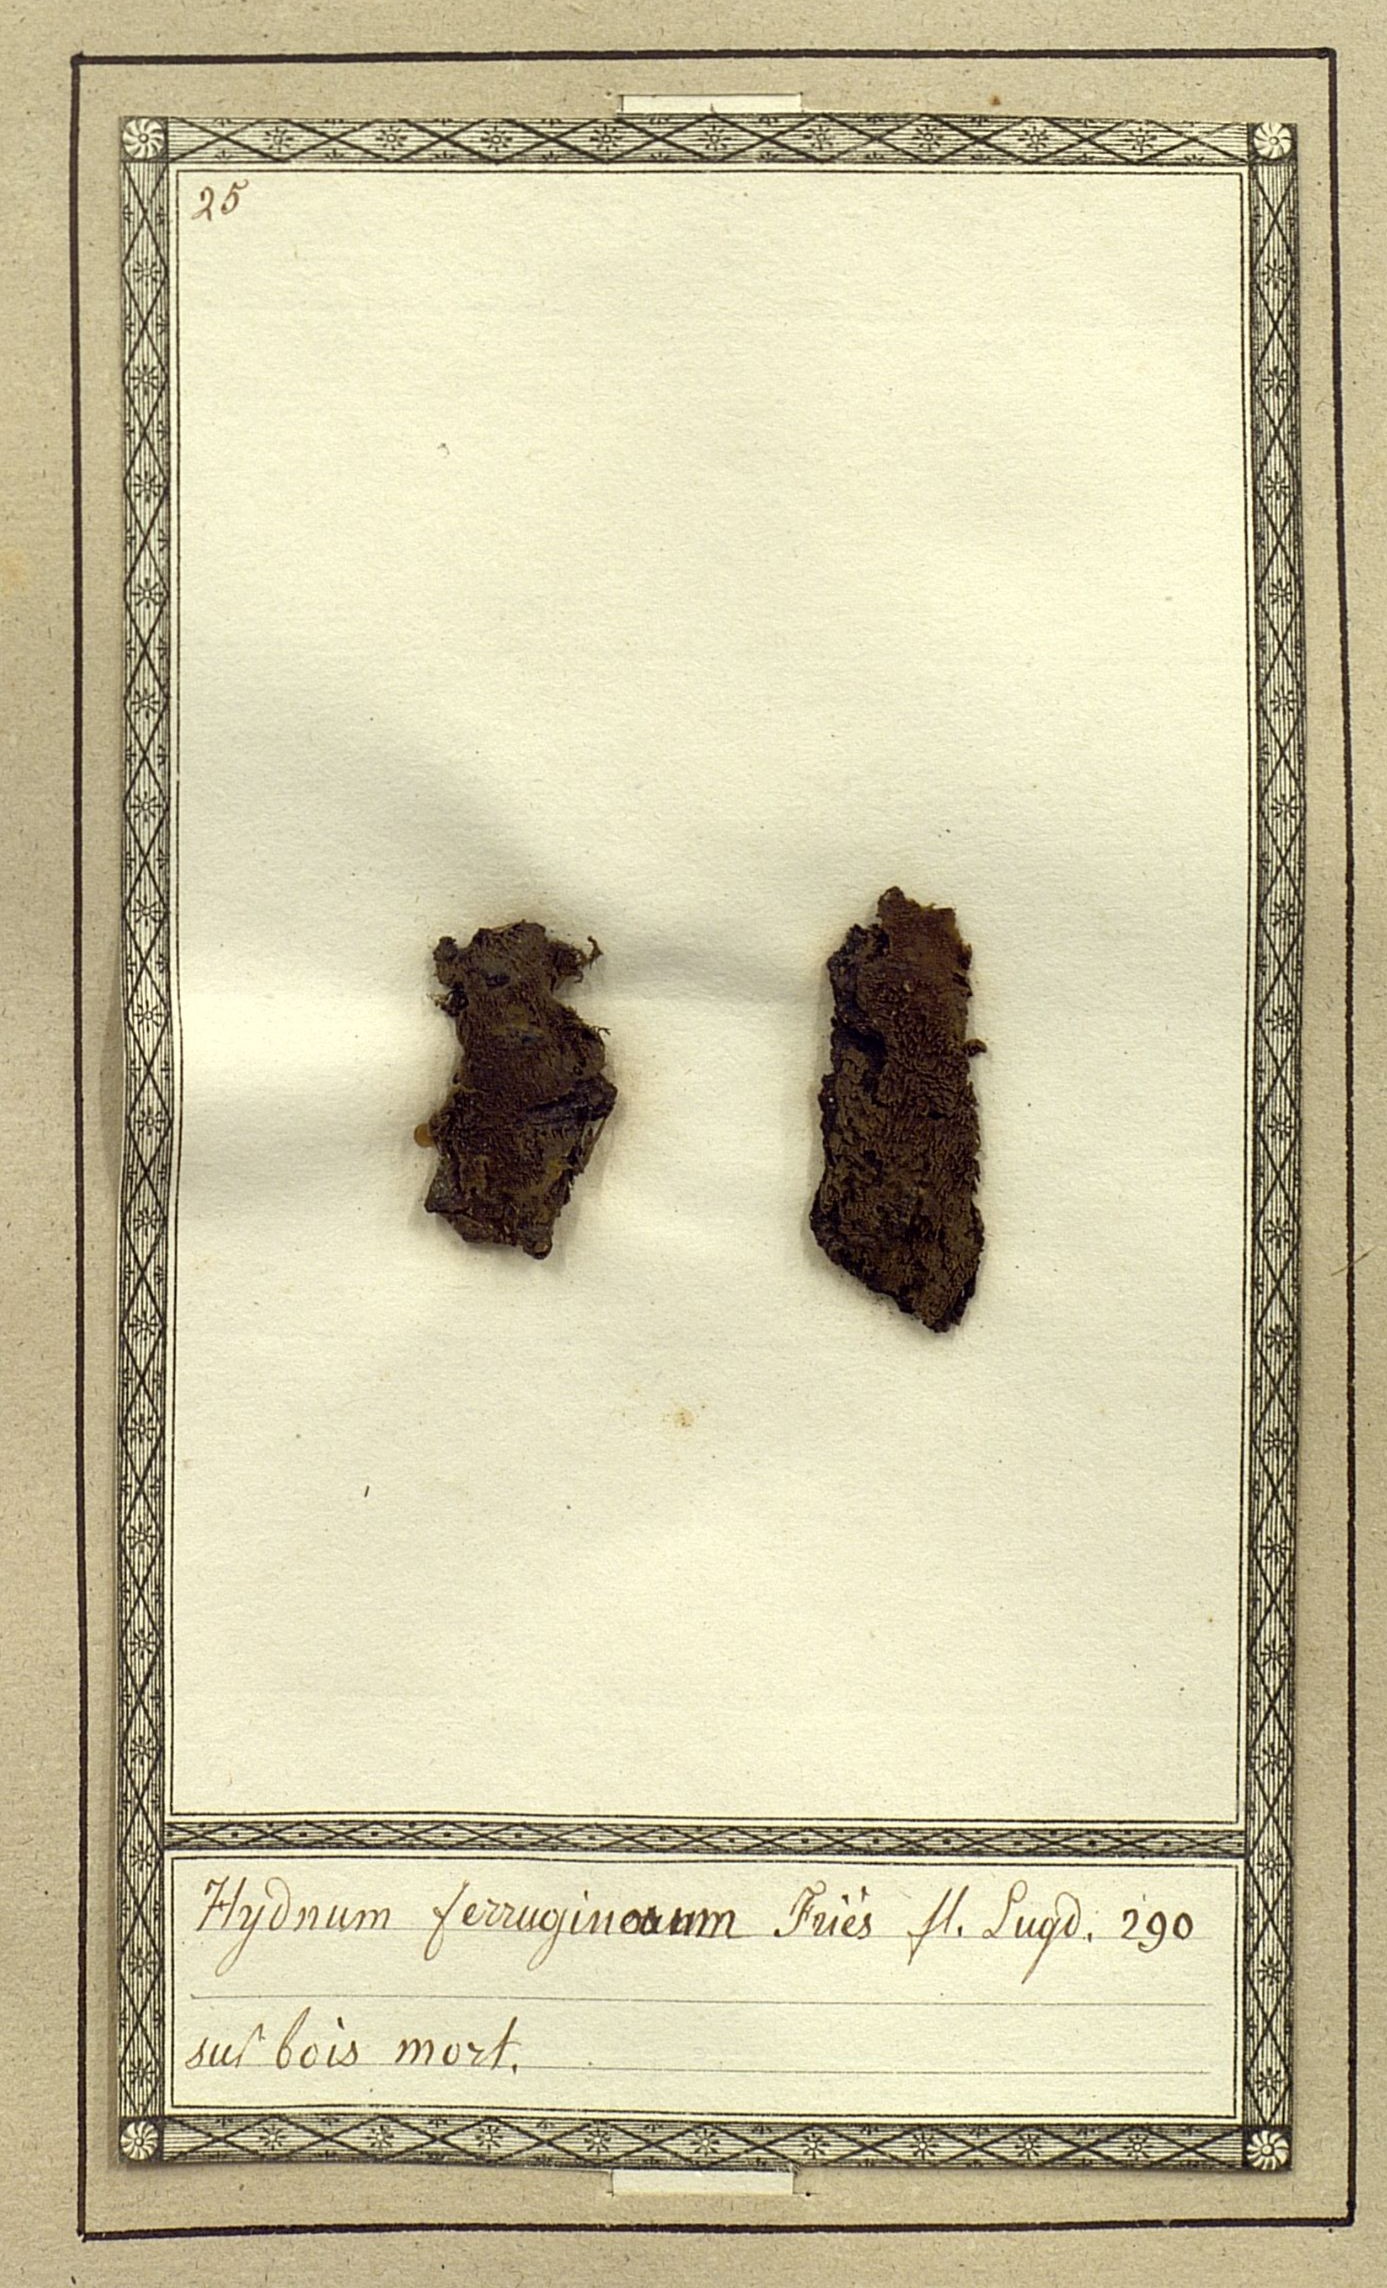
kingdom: Fungi
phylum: Basidiomycota
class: Agaricomycetes
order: Thelephorales
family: Thelephoraceae
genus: Tomentella
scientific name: Tomentella crinalis
